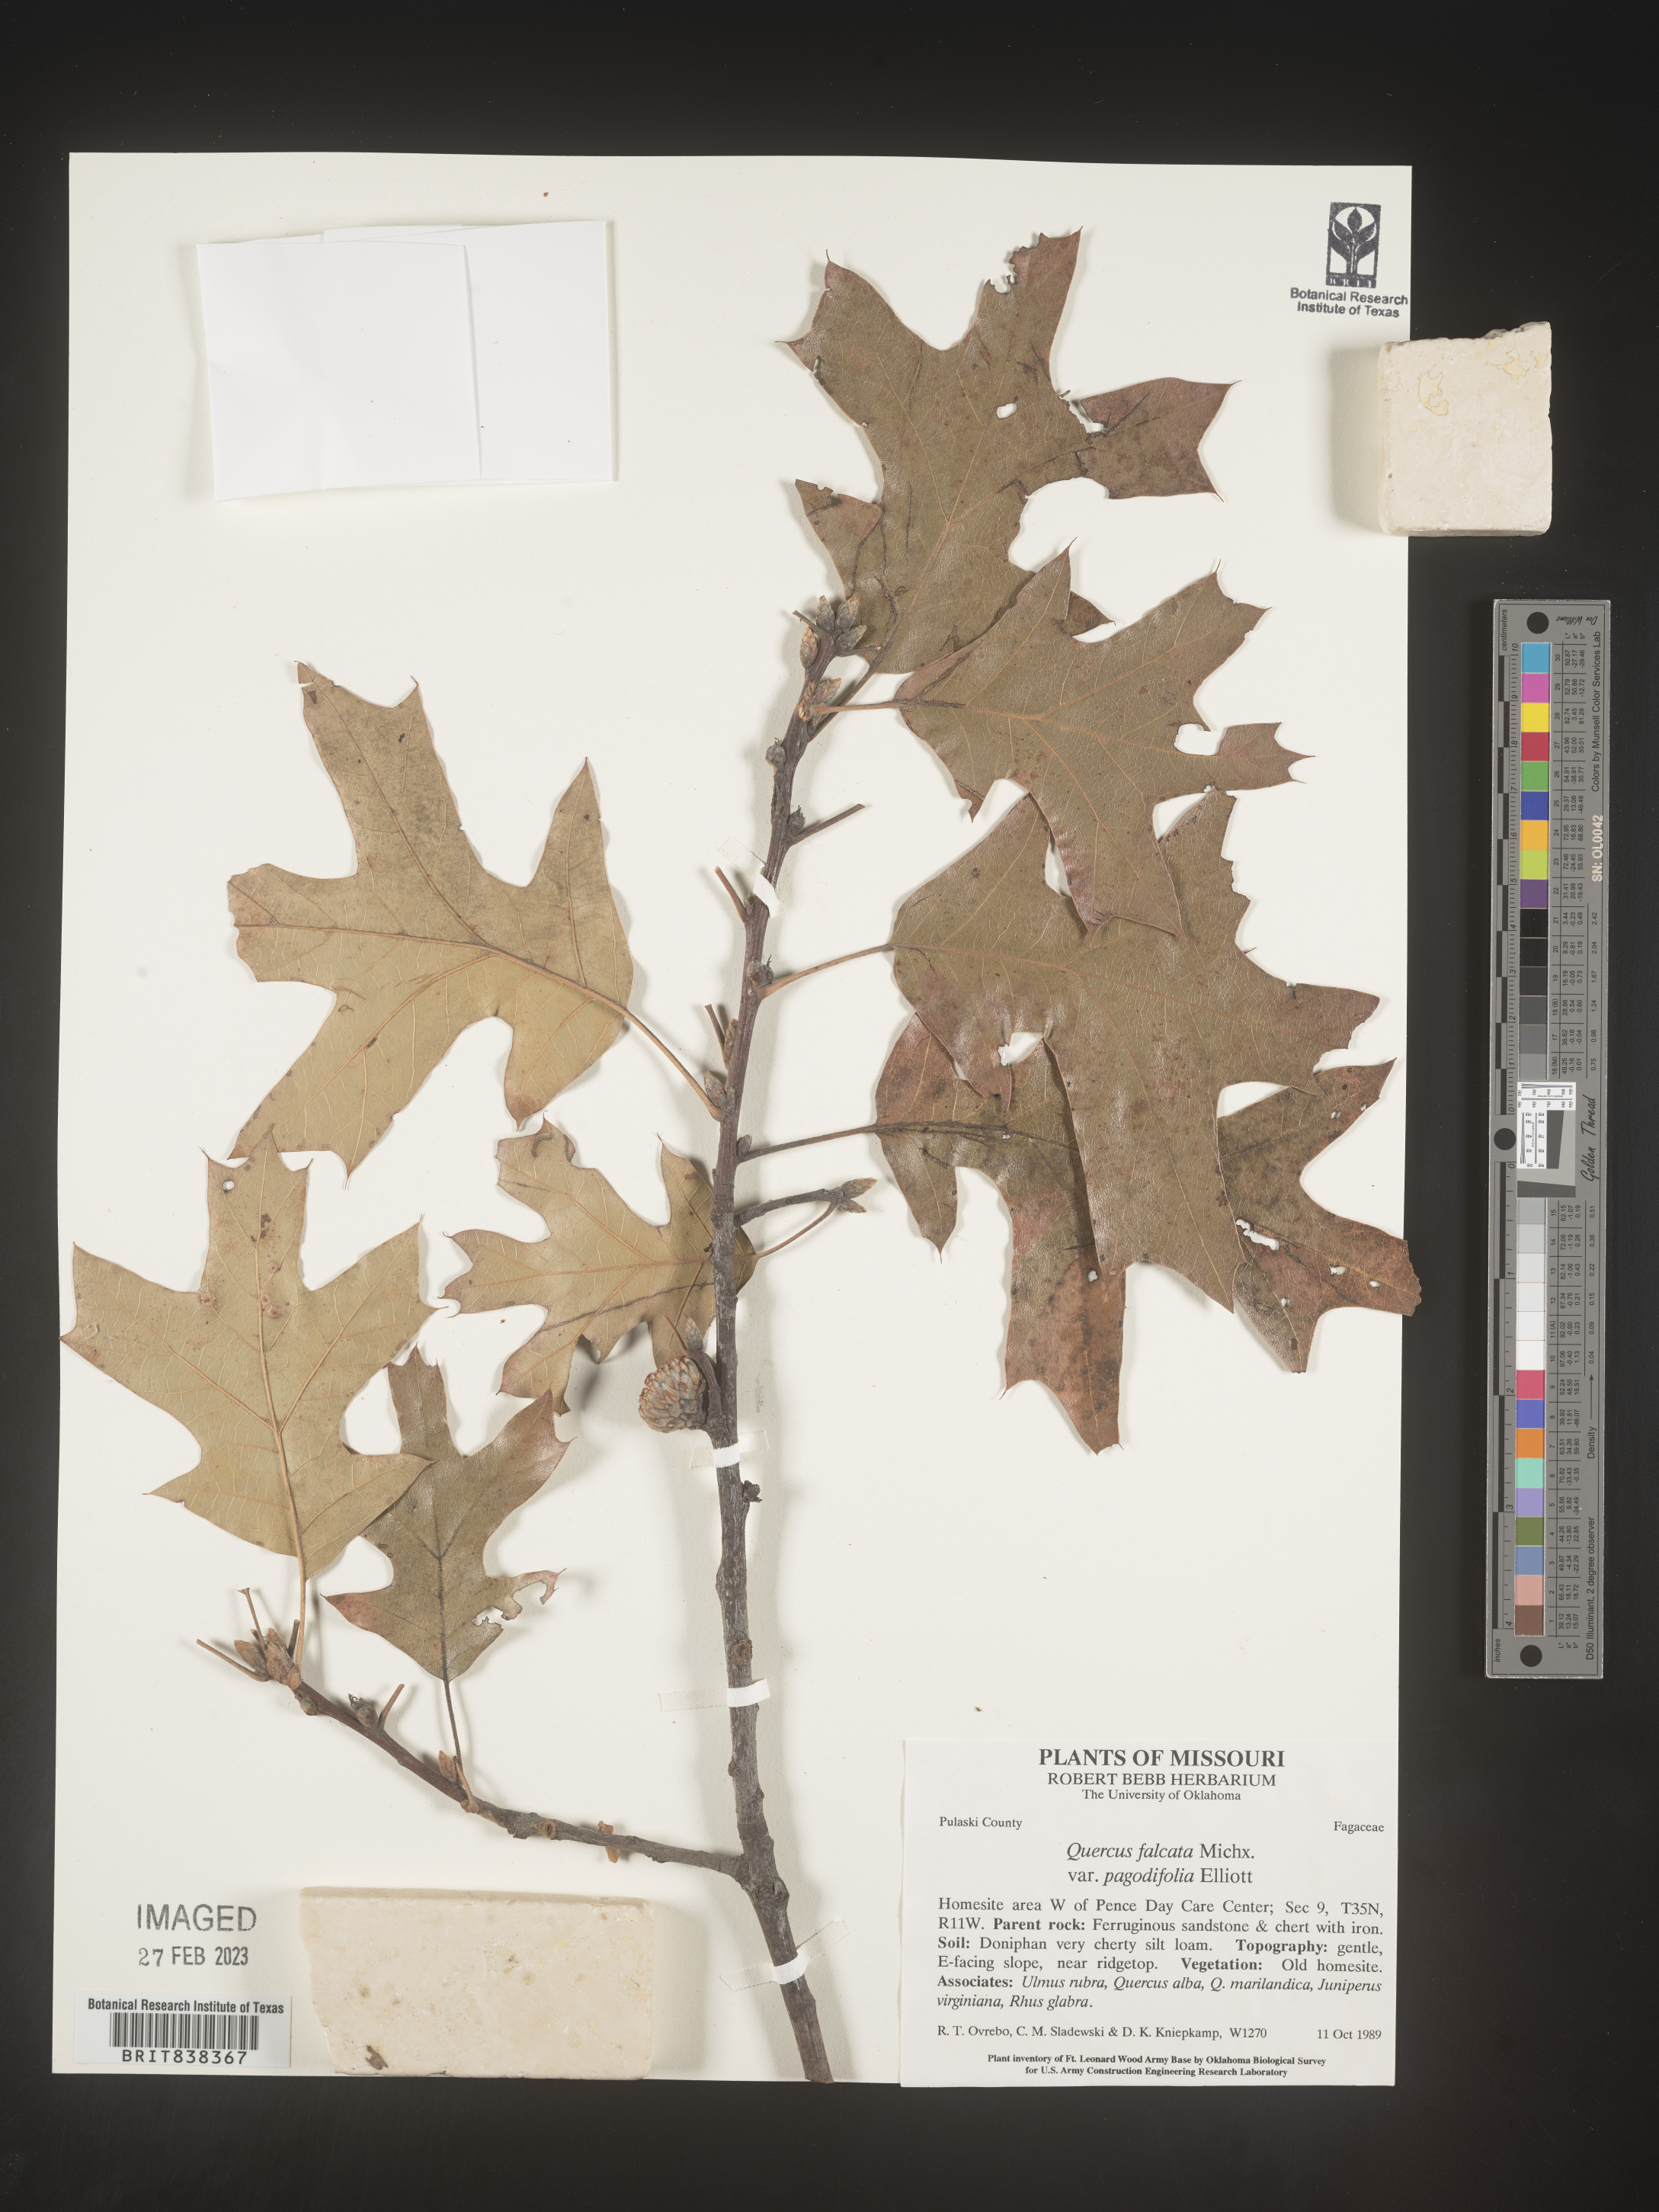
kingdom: Plantae
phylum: Tracheophyta
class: Magnoliopsida
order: Fagales
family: Fagaceae
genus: Quercus
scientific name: Quercus falcata
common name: Southern red oak
